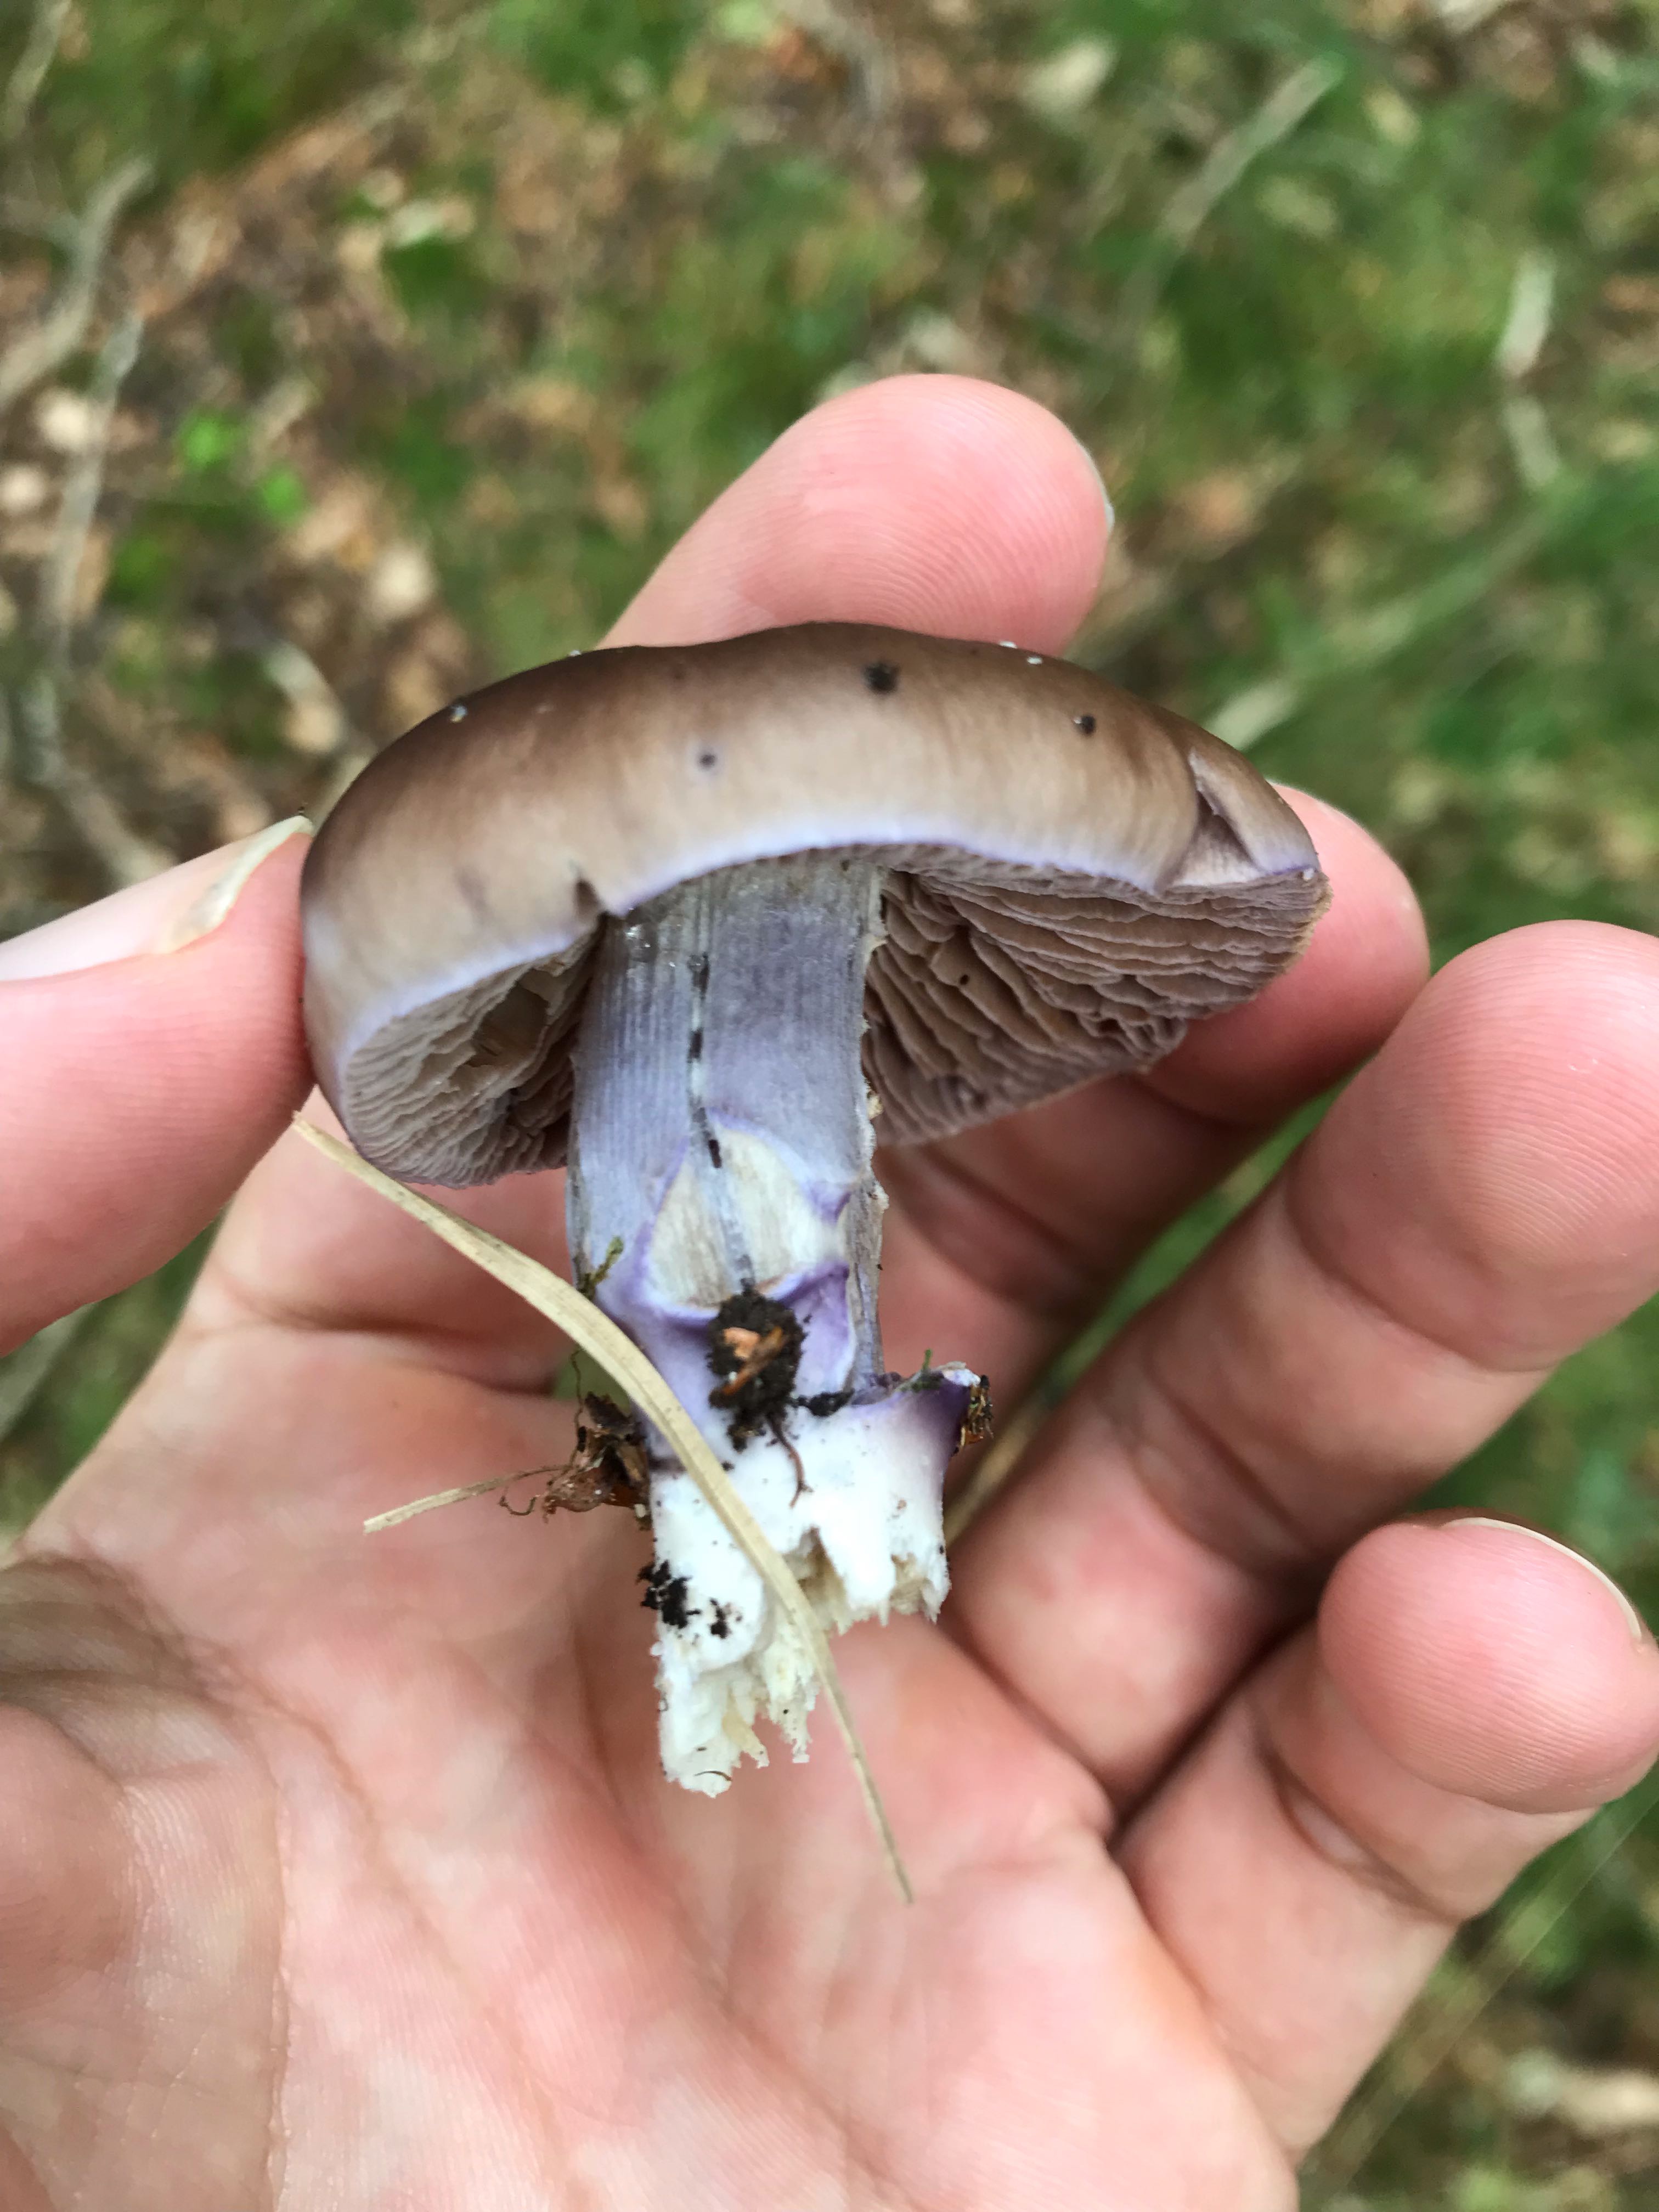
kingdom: Fungi
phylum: Basidiomycota
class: Agaricomycetes
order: Agaricales
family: Cortinariaceae
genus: Cortinarius
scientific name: Cortinarius elatior
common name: høj slørhat
